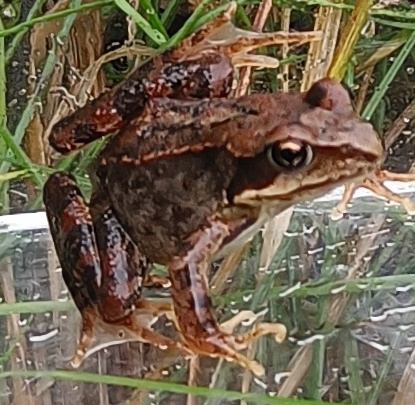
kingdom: Animalia
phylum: Chordata
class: Amphibia
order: Anura
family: Ranidae
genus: Rana
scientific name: Rana temporaria
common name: Butsnudet frø
